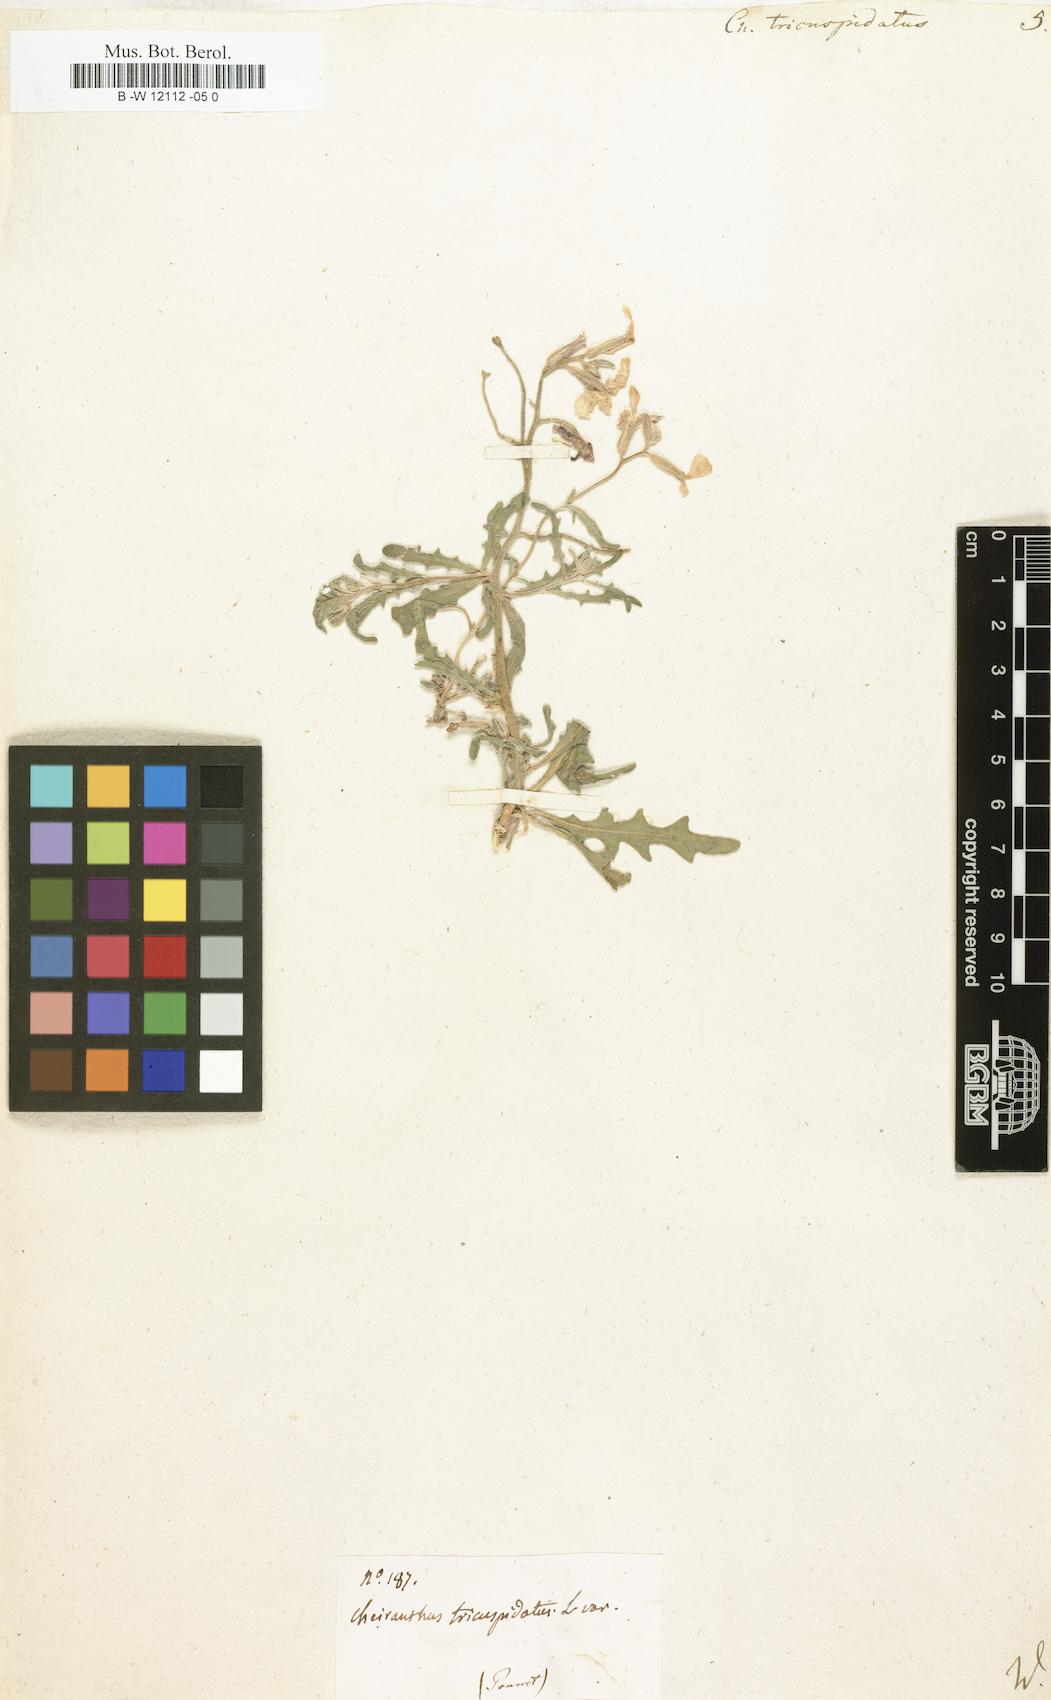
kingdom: Plantae
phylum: Tracheophyta
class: Magnoliopsida
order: Brassicales
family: Brassicaceae
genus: Matthiola
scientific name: Matthiola
